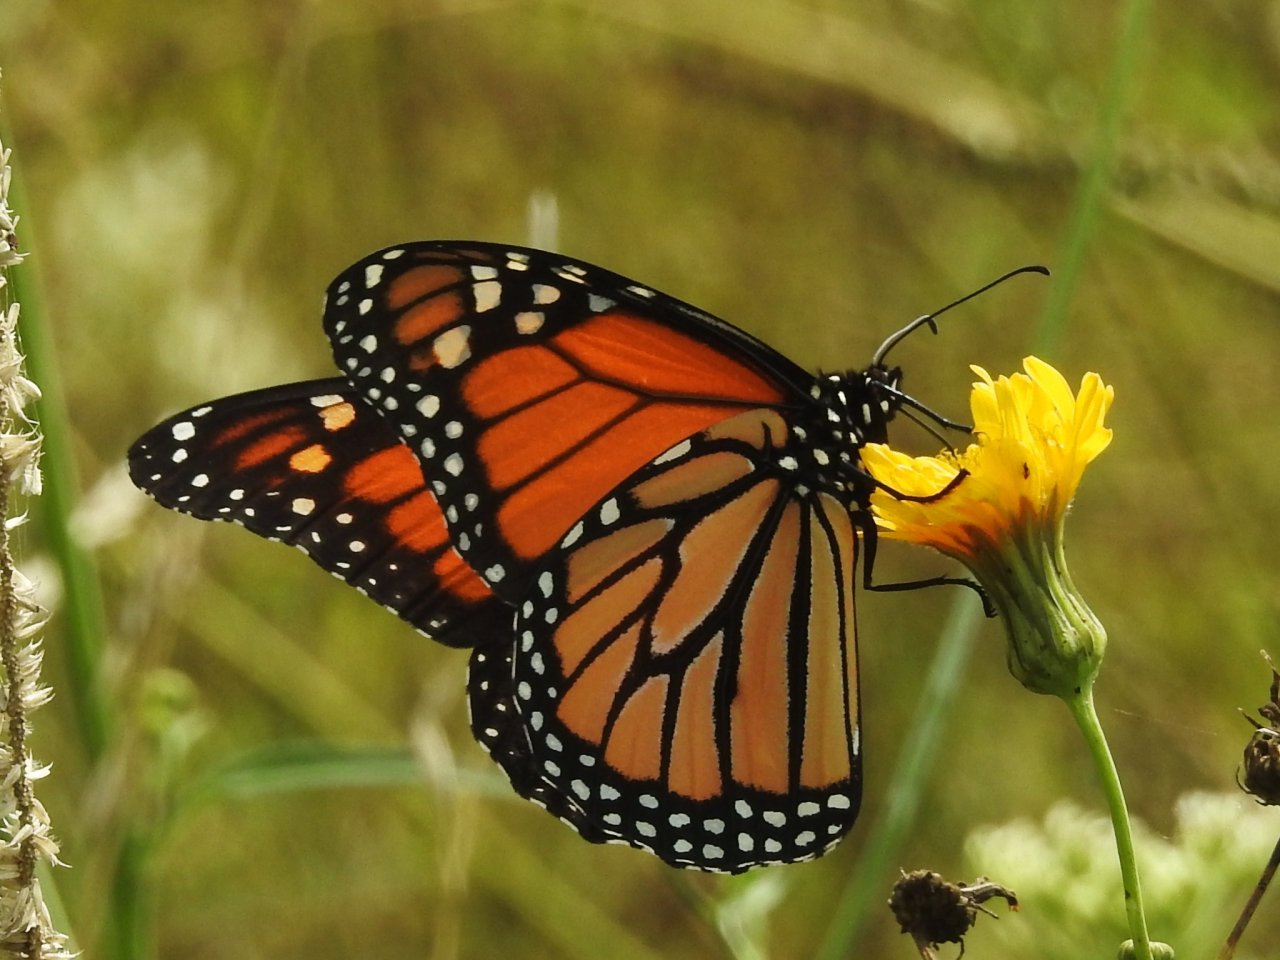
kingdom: Animalia
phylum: Arthropoda
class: Insecta
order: Lepidoptera
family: Nymphalidae
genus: Danaus
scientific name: Danaus plexippus
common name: Monarch
